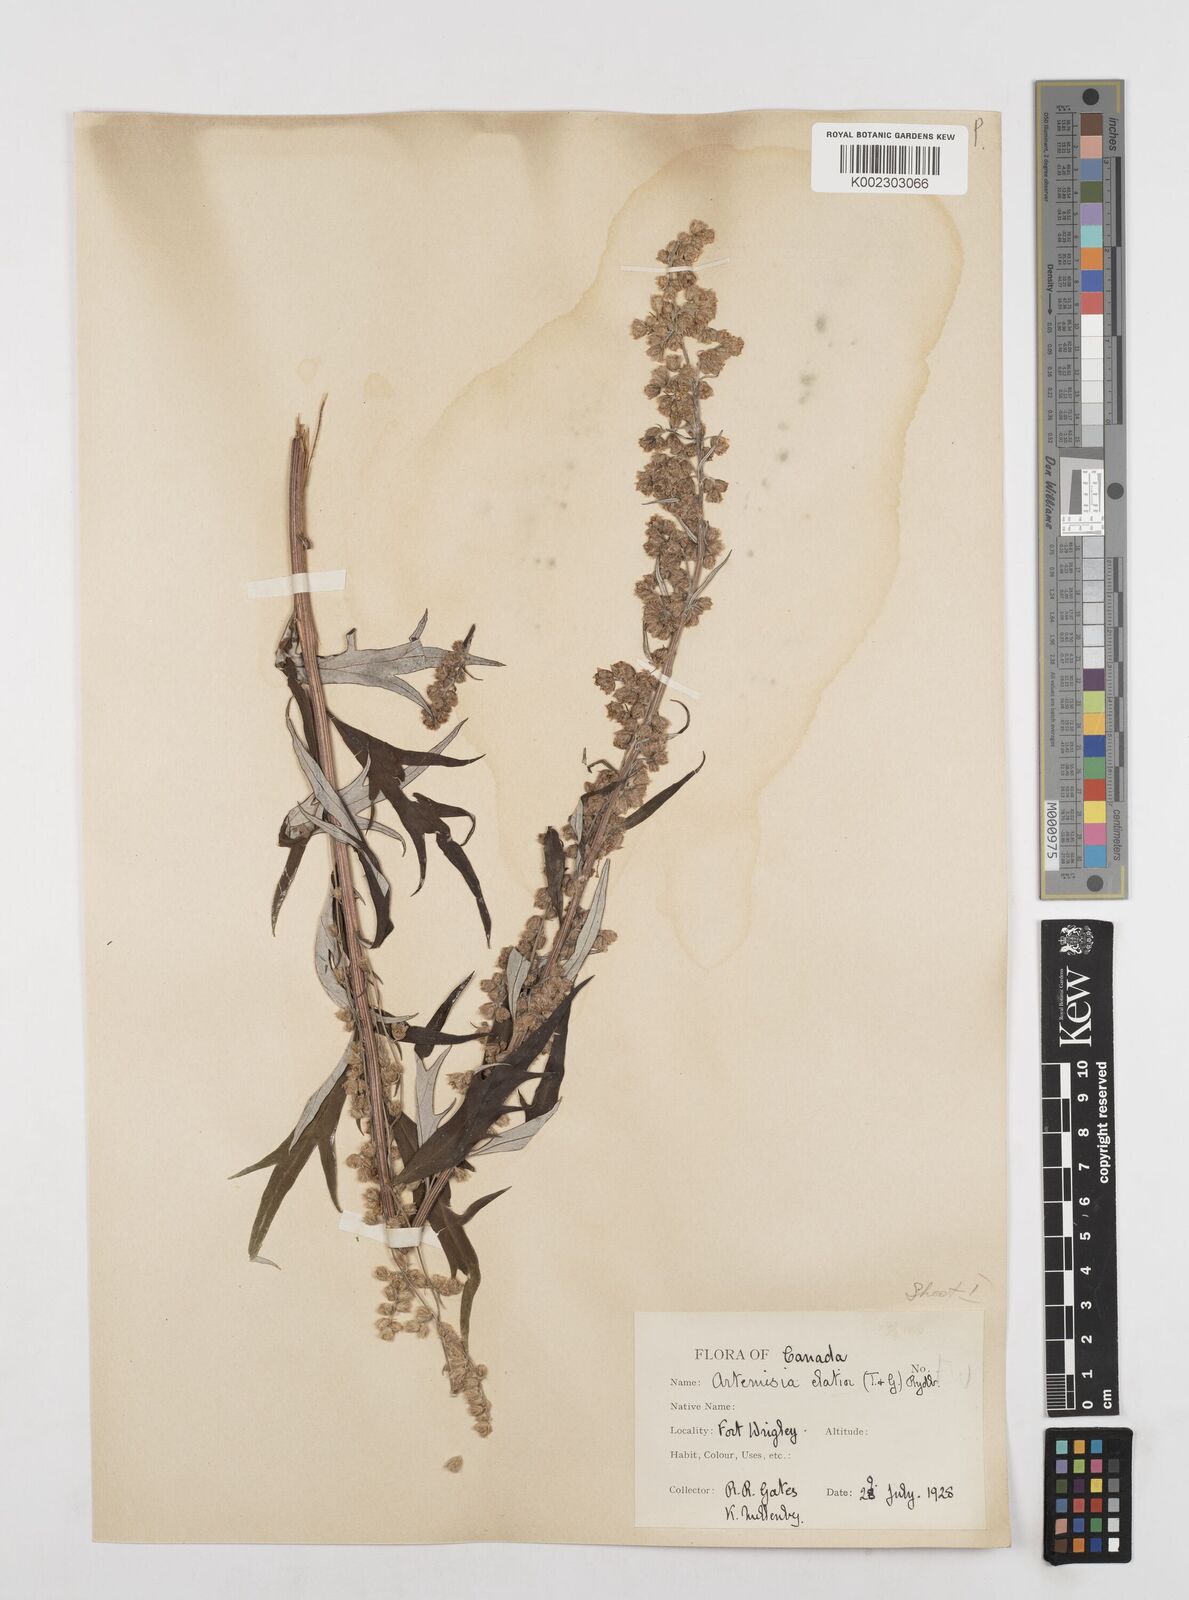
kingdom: Plantae
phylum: Tracheophyta
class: Magnoliopsida
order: Asterales
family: Asteraceae
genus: Artemisia
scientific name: Artemisia tilesii
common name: Aleutian mugwort
